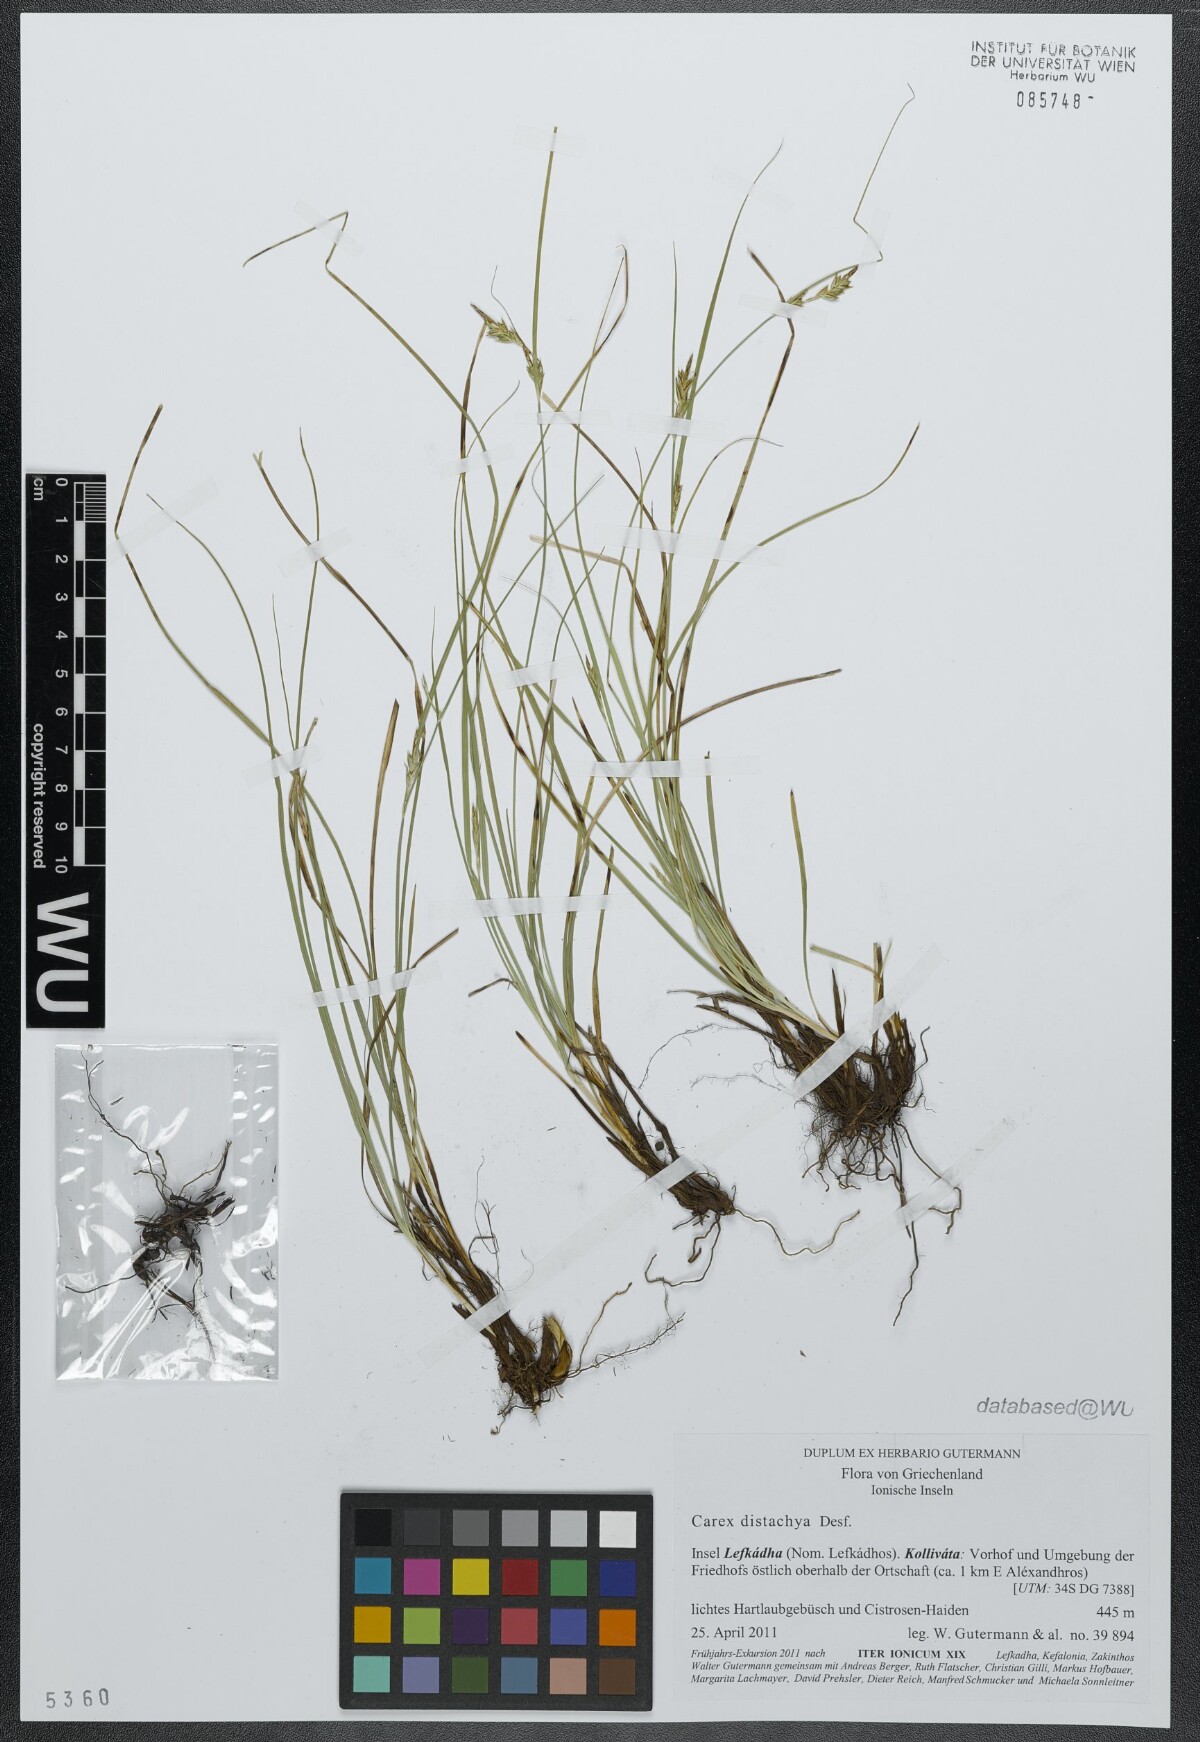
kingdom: Plantae
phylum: Tracheophyta
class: Liliopsida
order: Poales
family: Cyperaceae
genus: Carex
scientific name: Carex distachya
